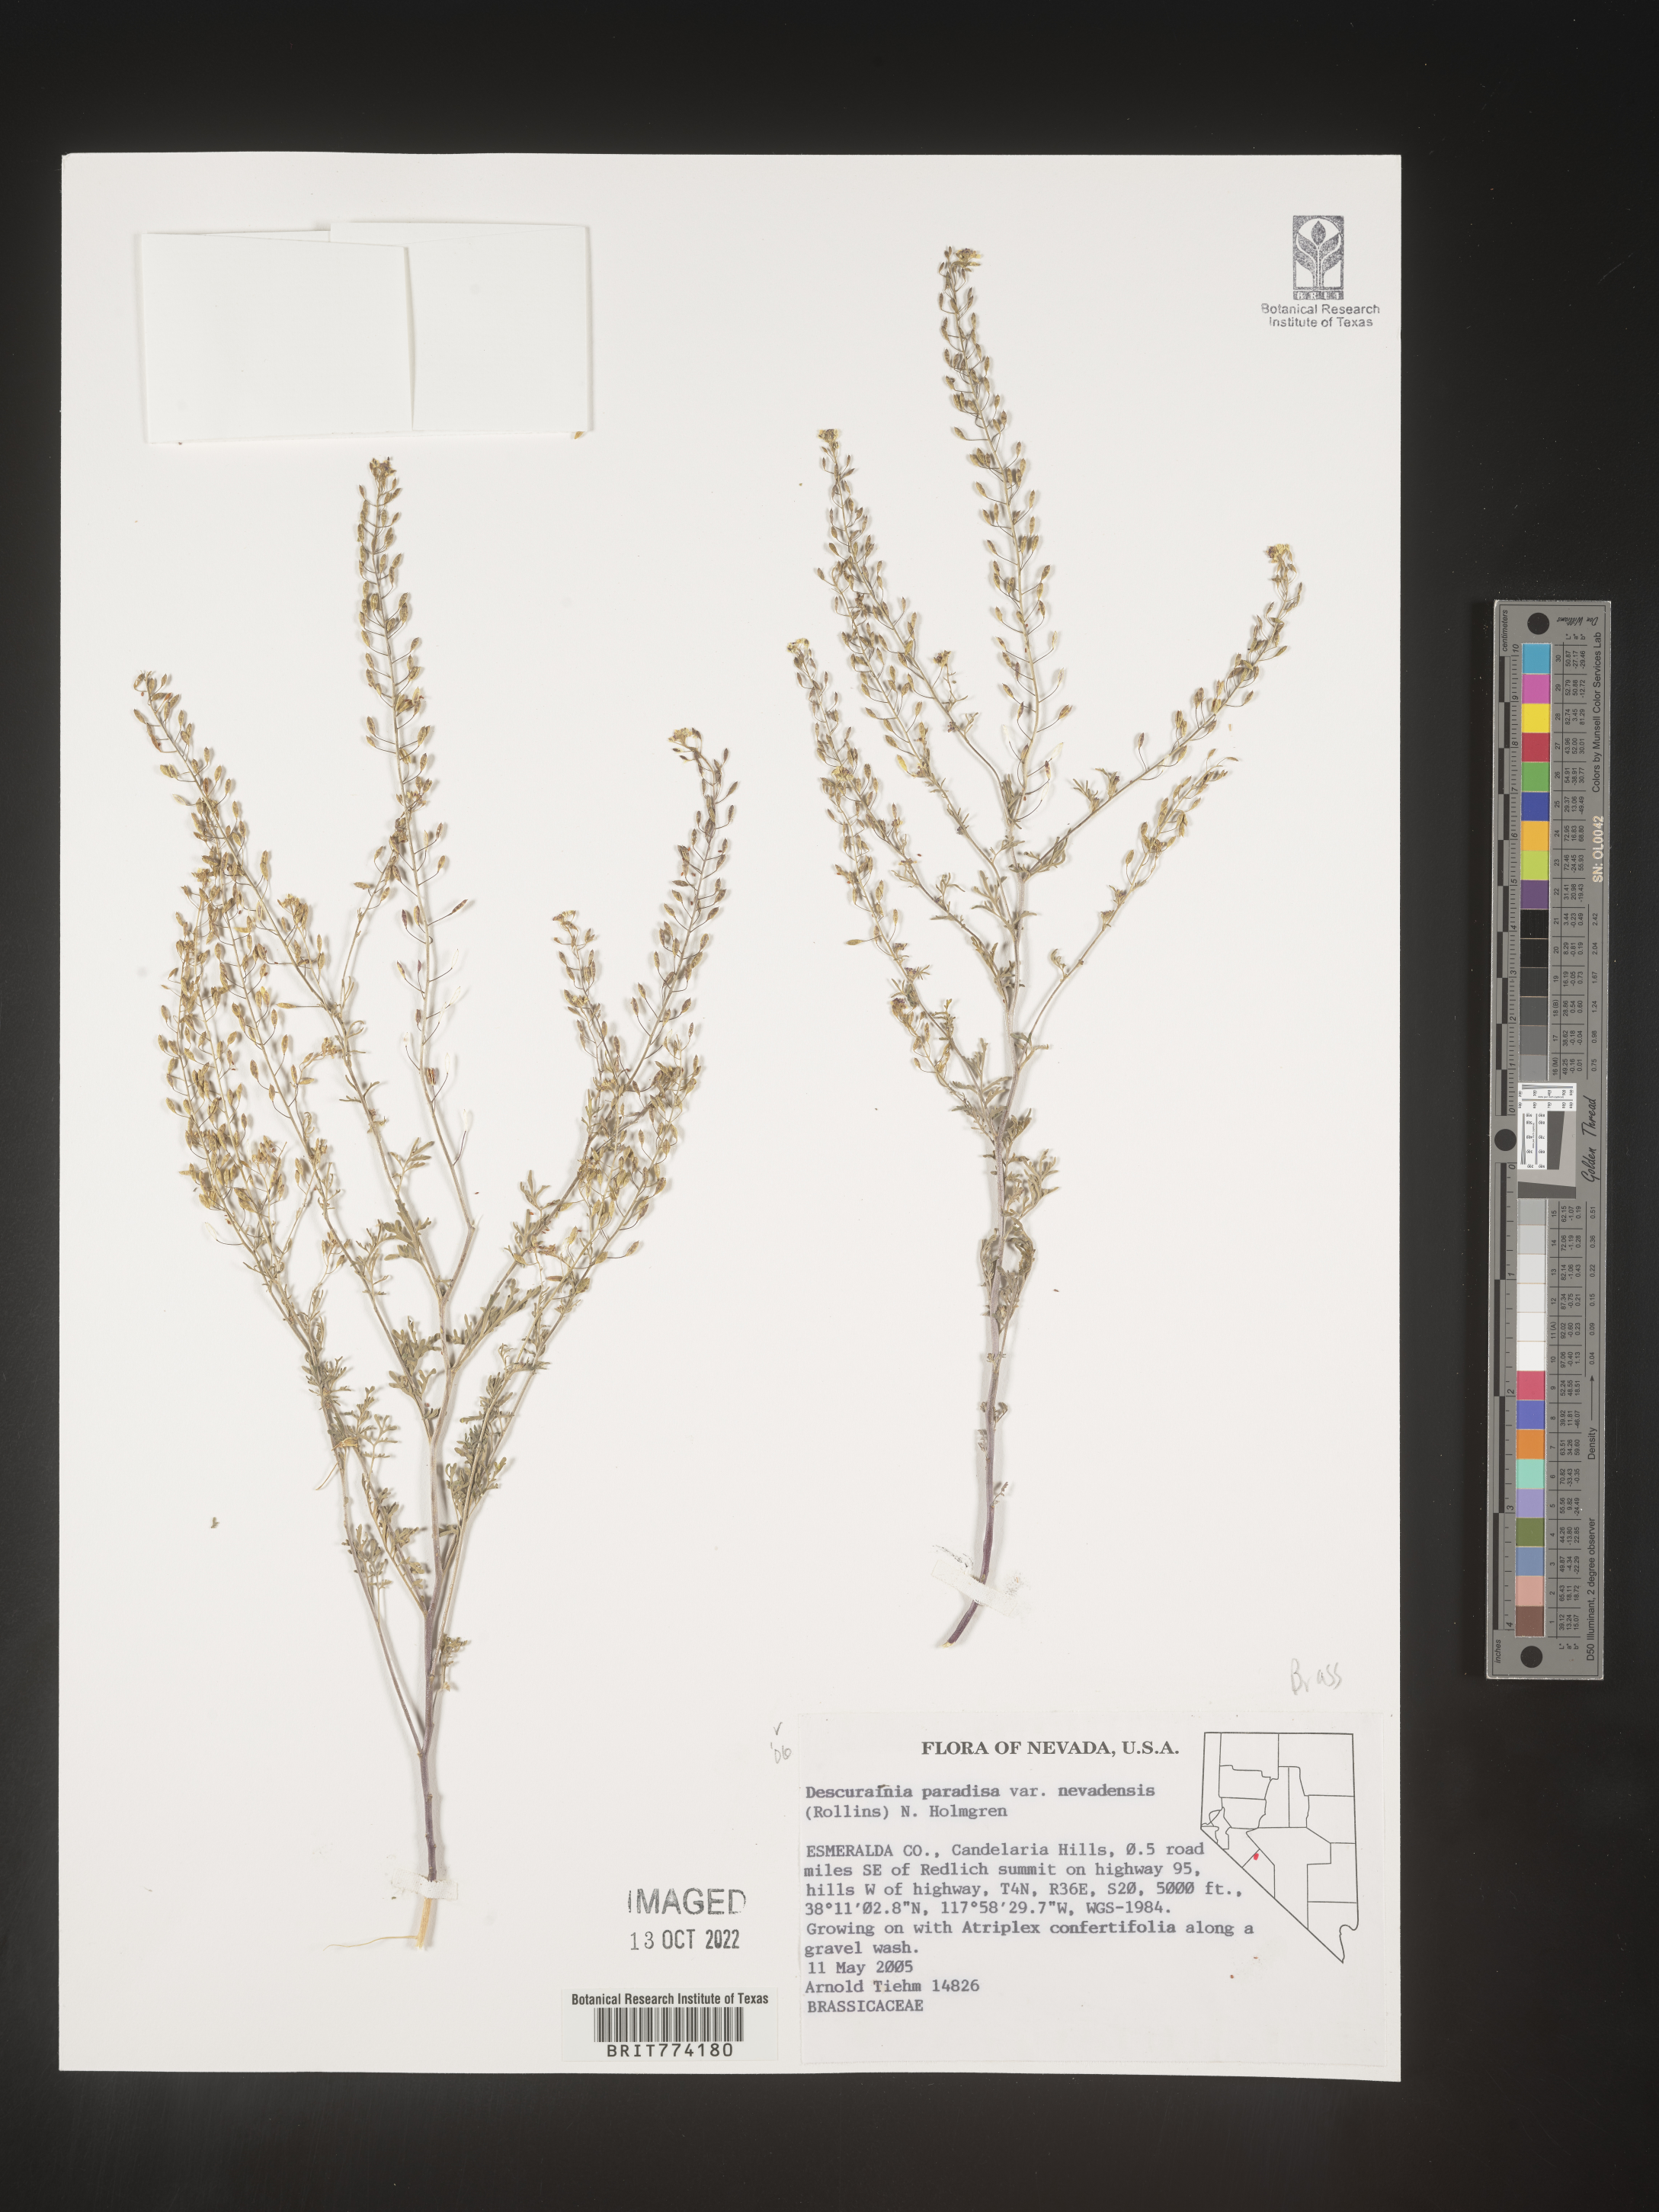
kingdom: Plantae
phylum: Tracheophyta
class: Magnoliopsida
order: Brassicales
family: Brassicaceae
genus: Descurainia
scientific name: Descurainia paradisa
